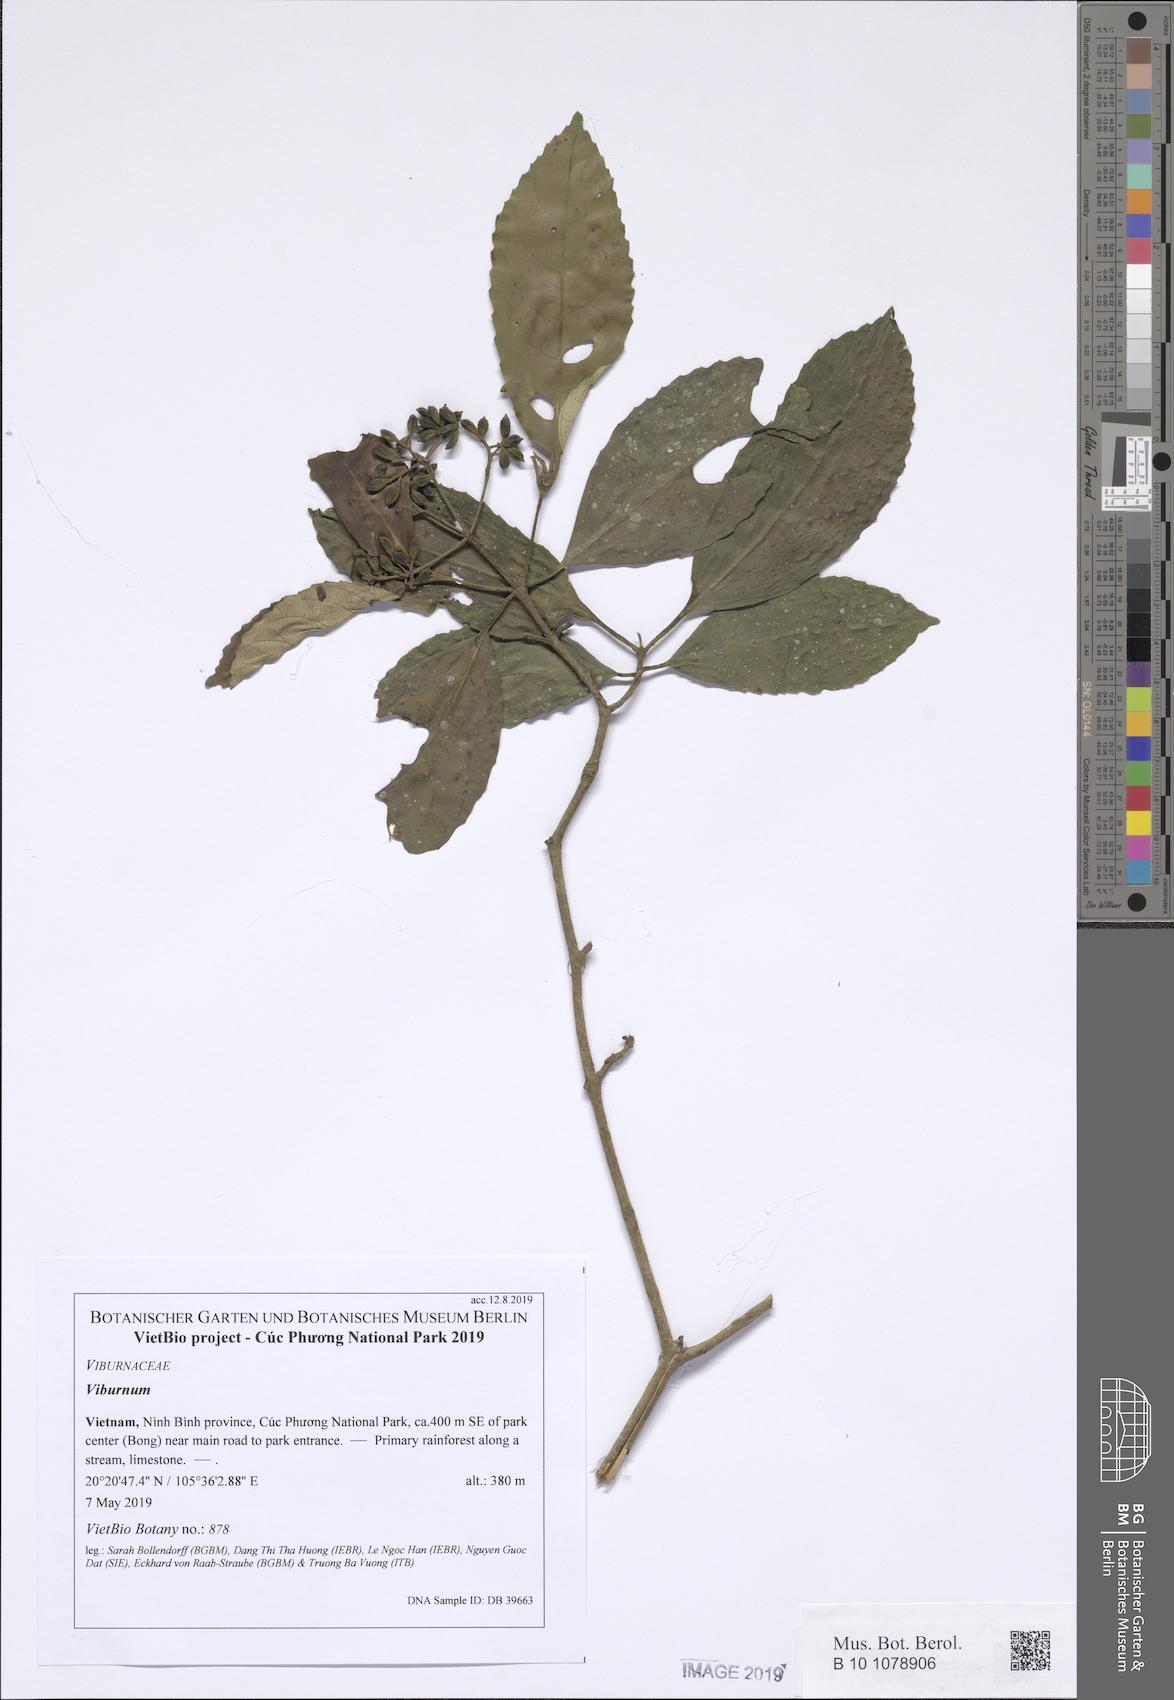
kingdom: Plantae
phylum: Tracheophyta
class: Magnoliopsida
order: Dipsacales
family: Viburnaceae
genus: Viburnum
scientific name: Viburnum
